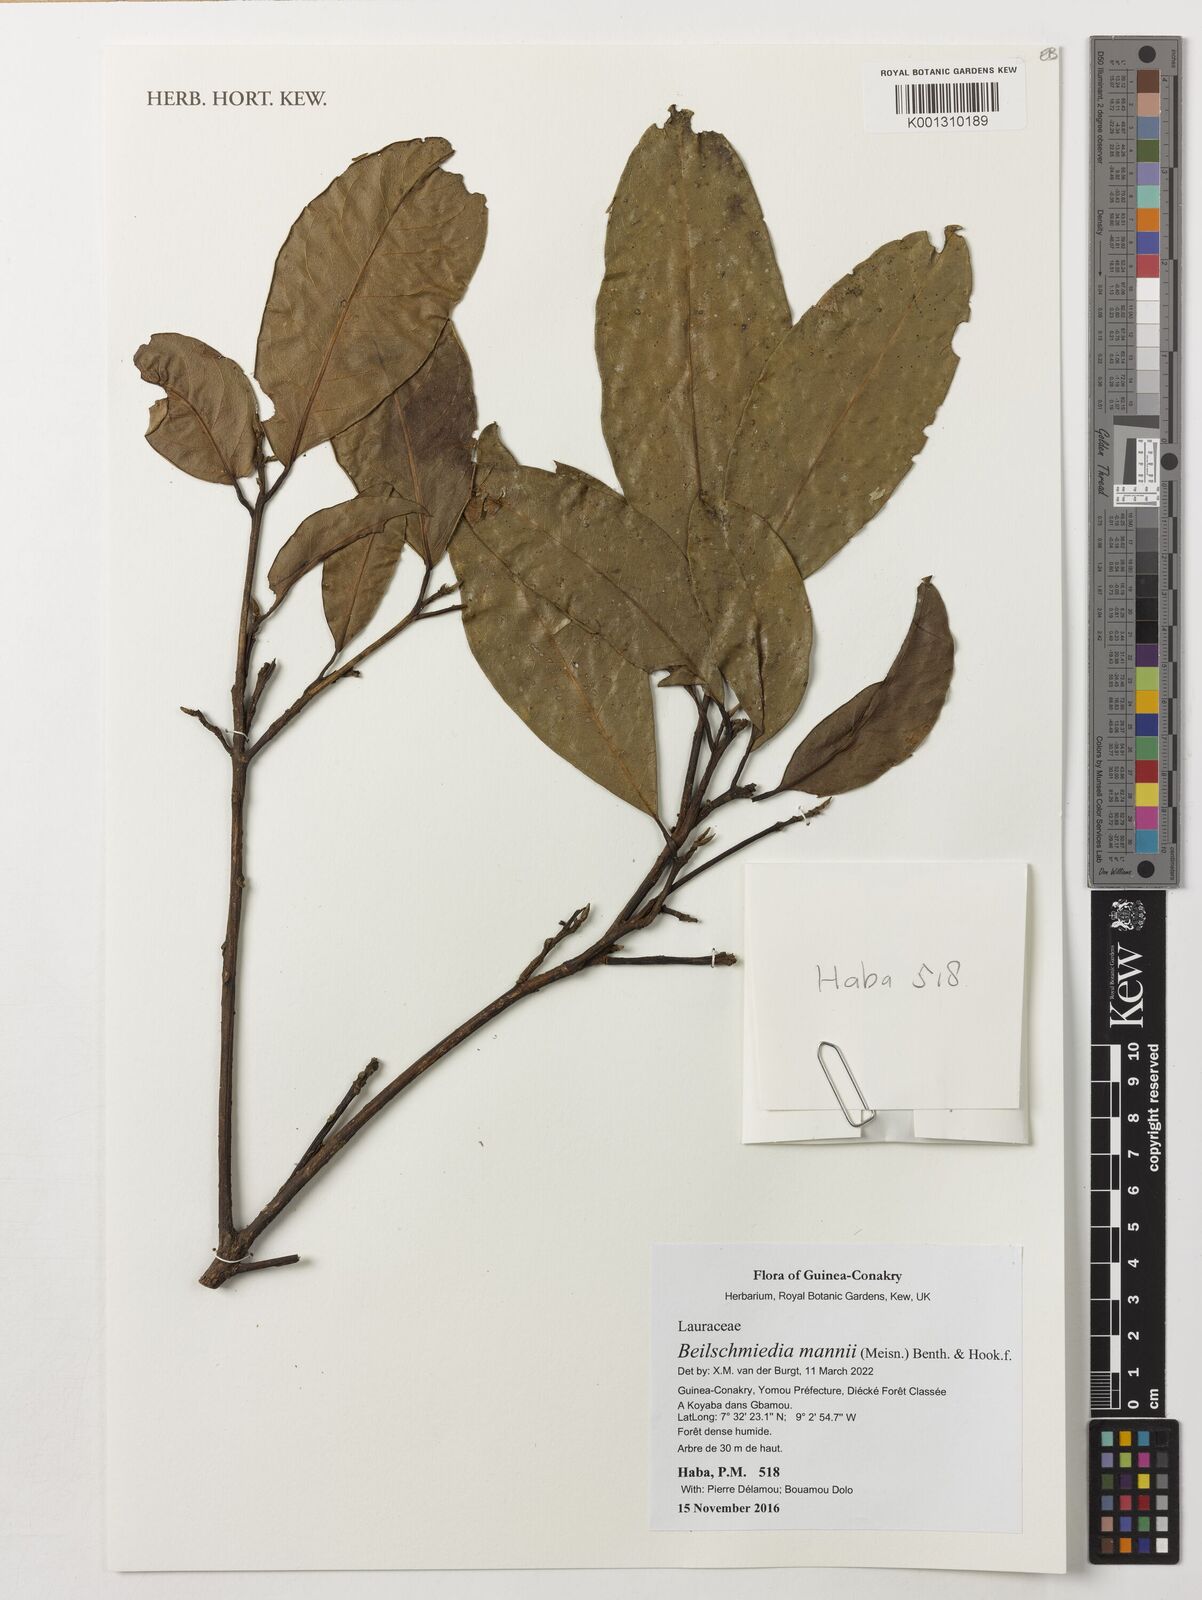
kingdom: Plantae
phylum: Tracheophyta
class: Magnoliopsida
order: Laurales
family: Lauraceae
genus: Beilschmiedia
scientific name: Beilschmiedia mannii
